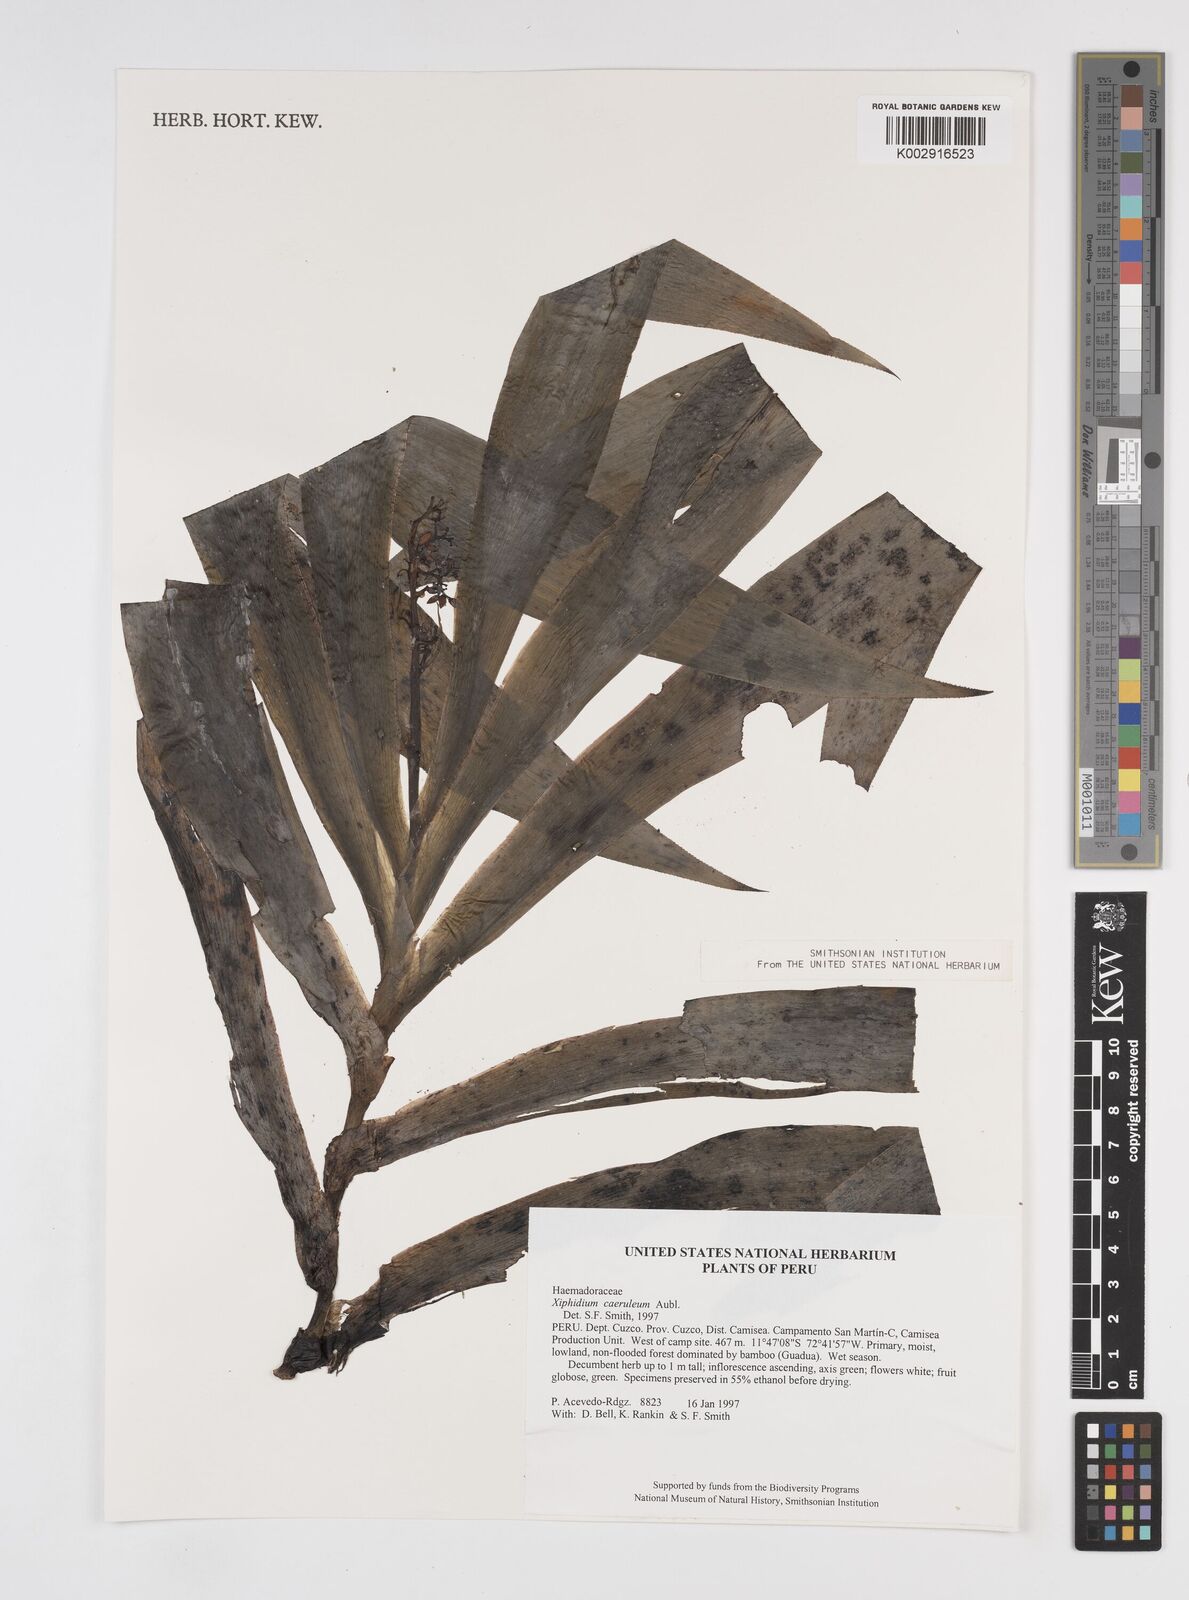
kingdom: Plantae
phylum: Tracheophyta
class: Liliopsida
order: Commelinales
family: Haemodoraceae
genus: Xiphidium
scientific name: Xiphidium caeruleum
